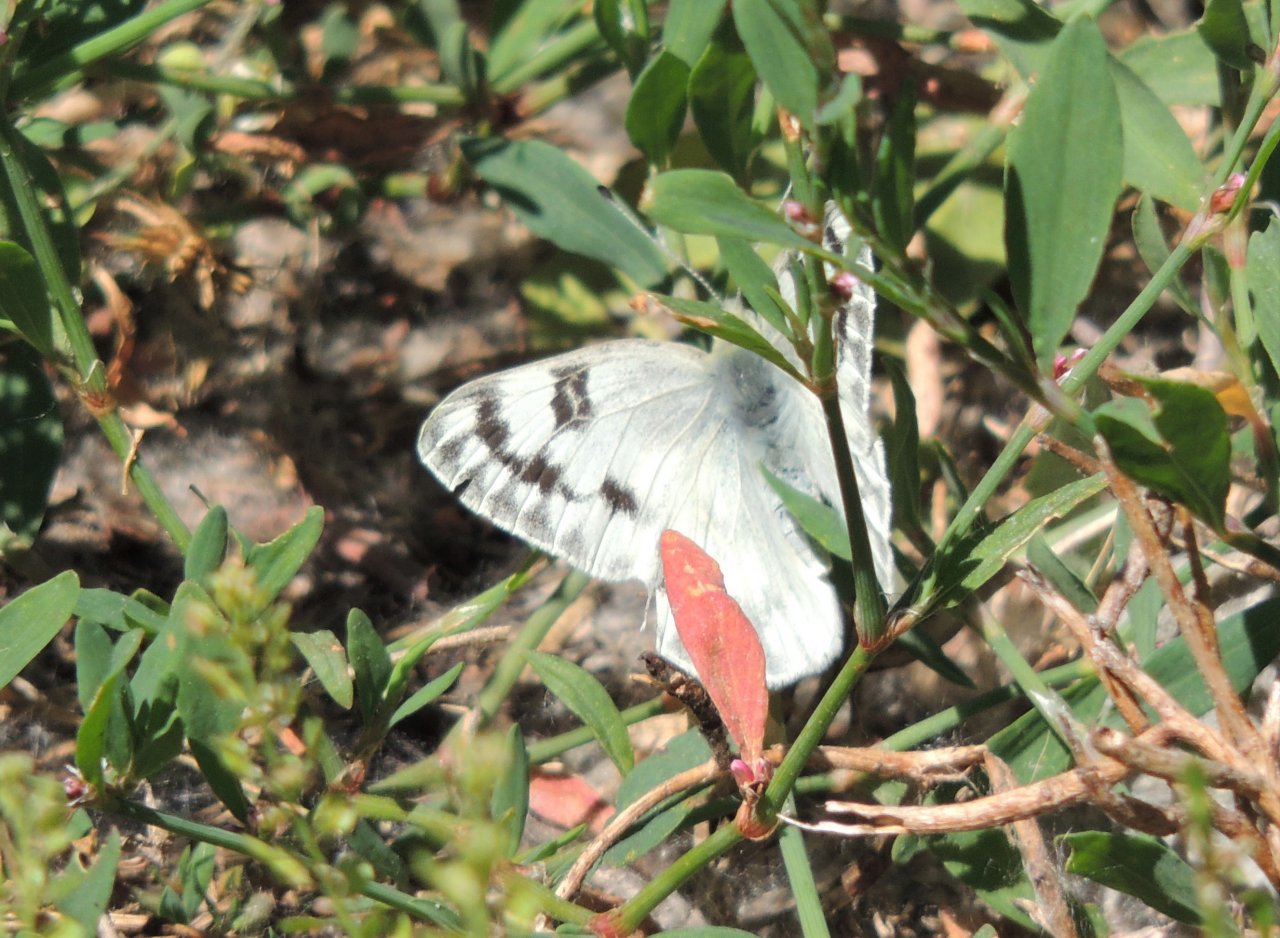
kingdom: Animalia
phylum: Arthropoda
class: Insecta
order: Lepidoptera
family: Pieridae
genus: Pontia
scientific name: Pontia occidentalis
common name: Western White
